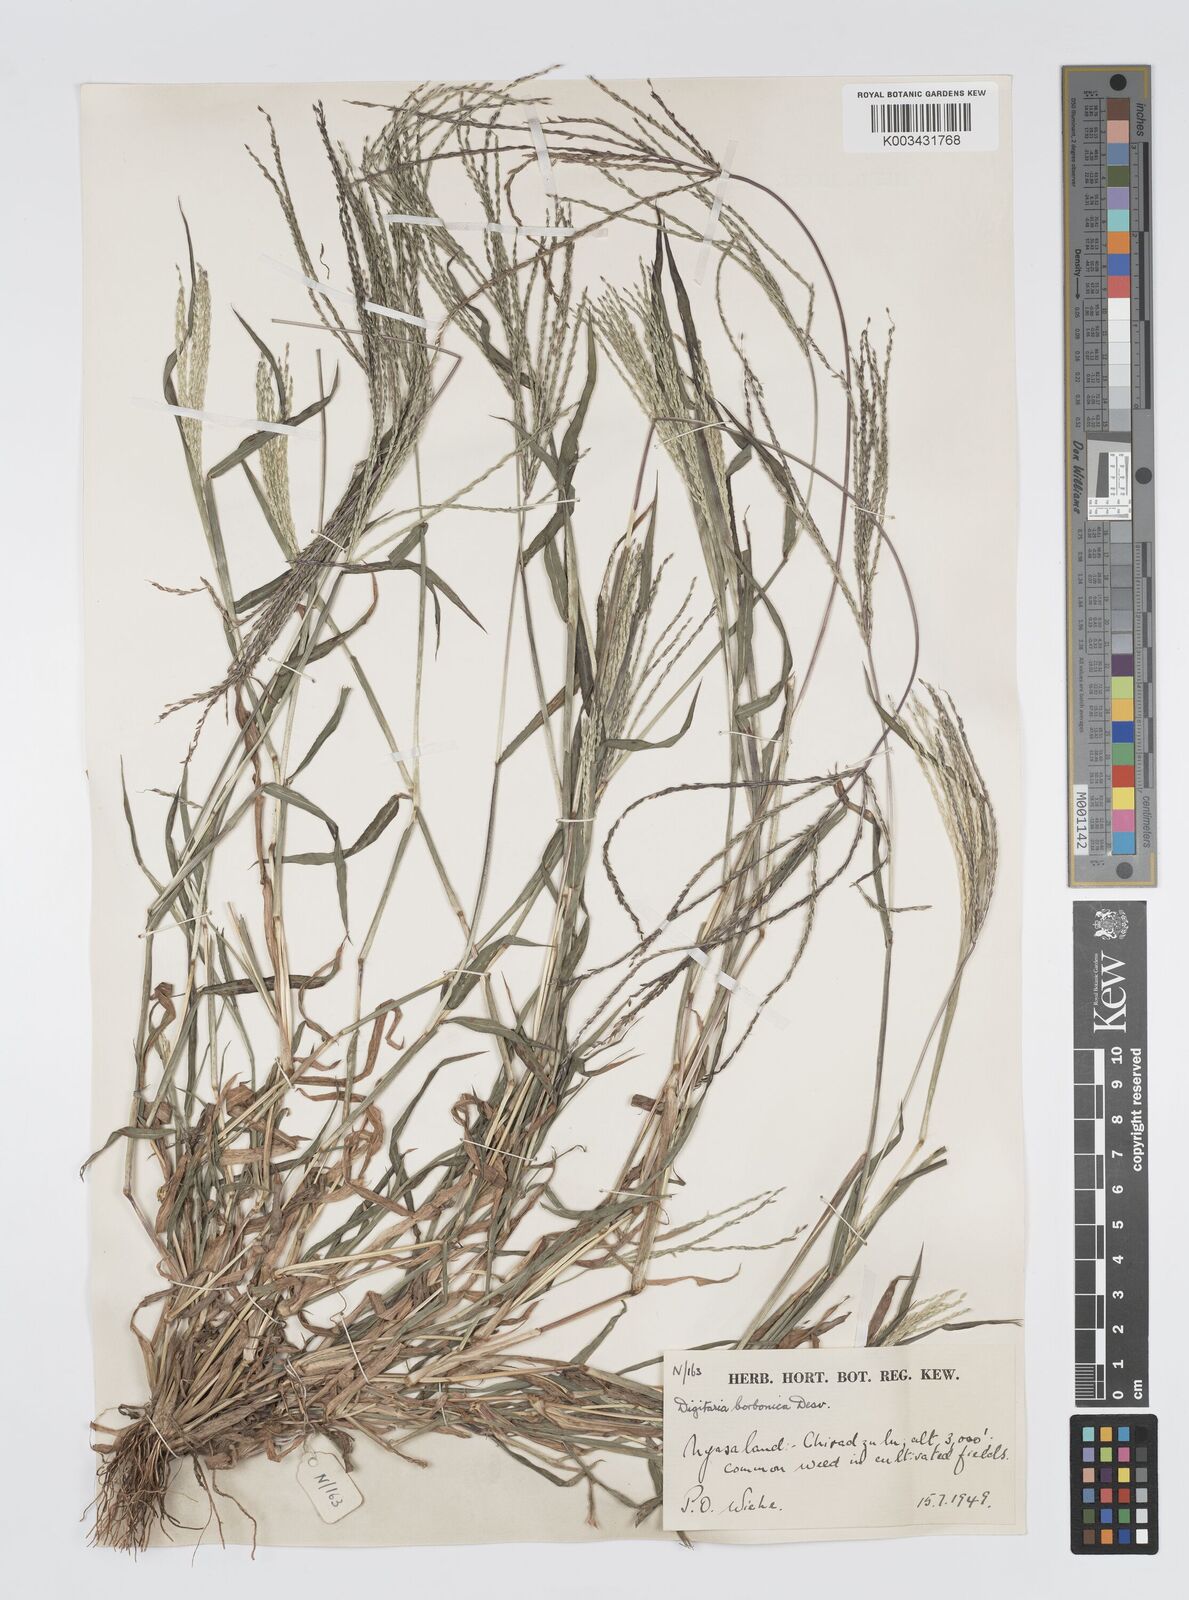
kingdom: Plantae
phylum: Tracheophyta
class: Liliopsida
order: Poales
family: Poaceae
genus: Digitaria
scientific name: Digitaria nuda
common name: Naked crabgrass
